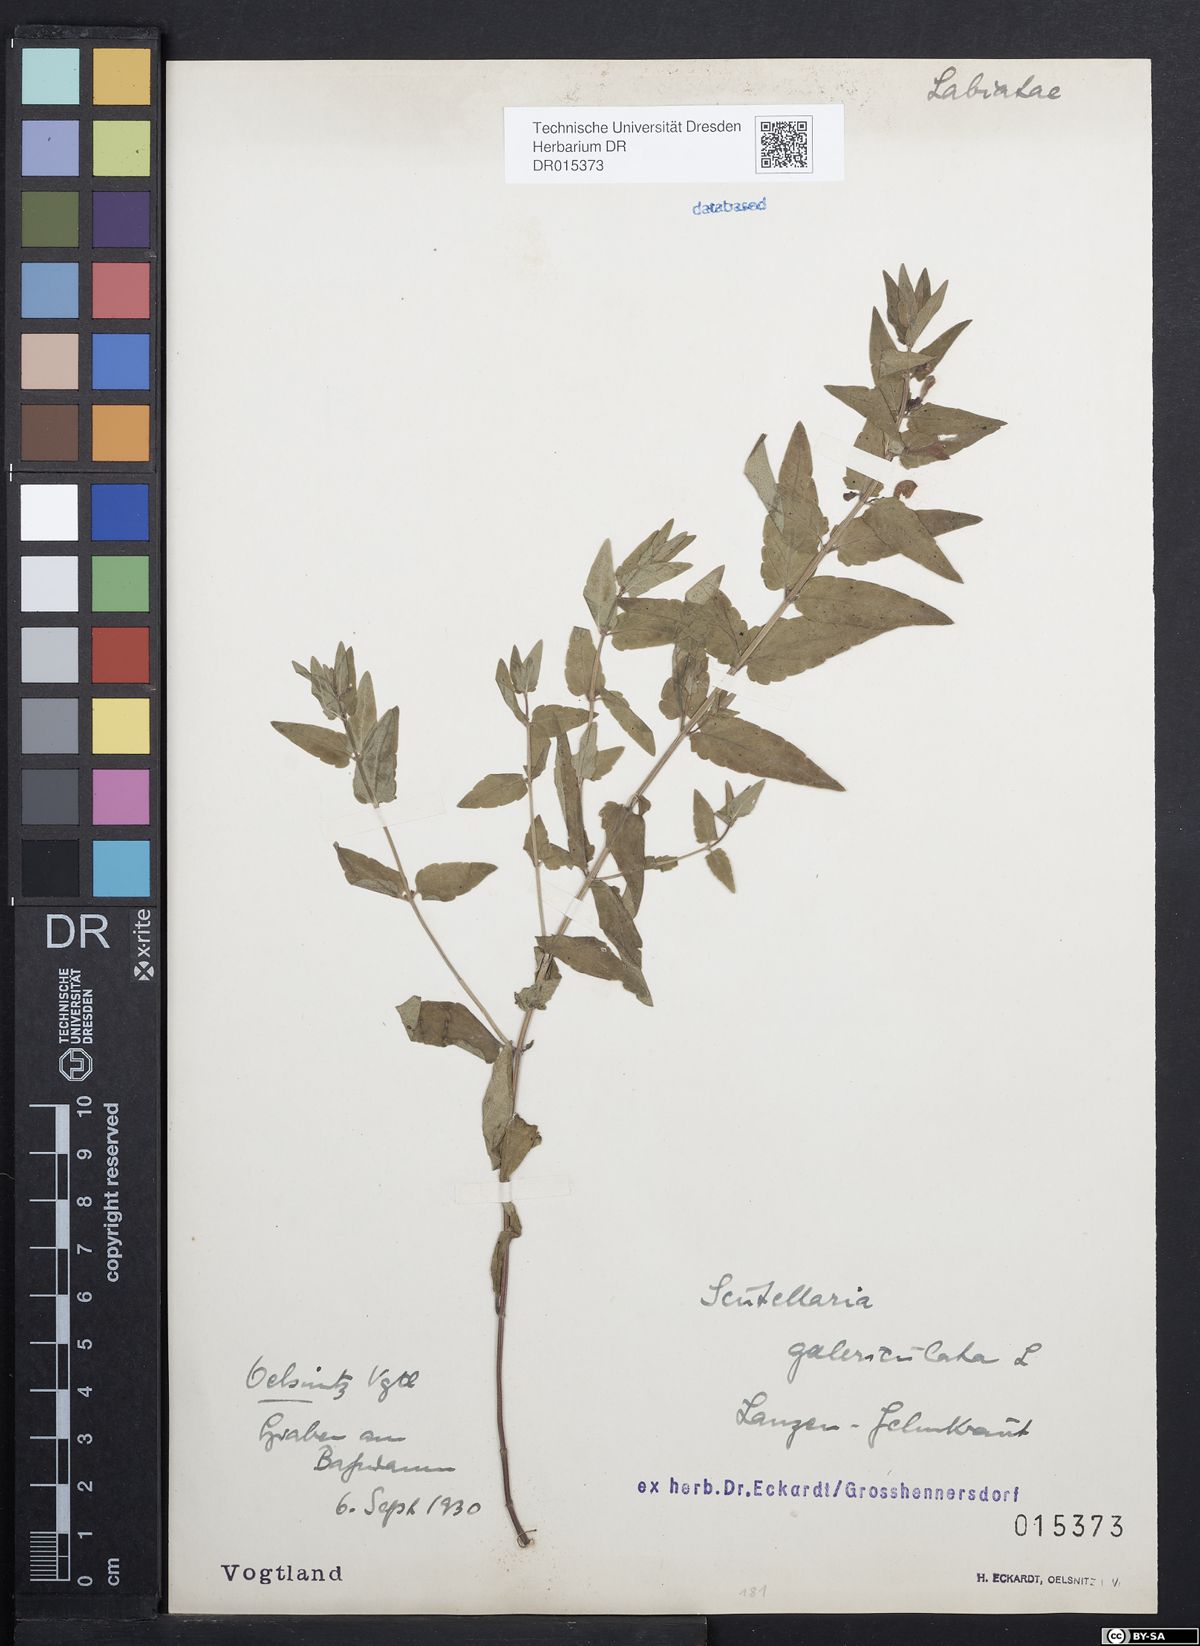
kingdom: Plantae
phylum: Tracheophyta
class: Magnoliopsida
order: Lamiales
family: Lamiaceae
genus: Scutellaria
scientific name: Scutellaria galericulata
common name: Skullcap
